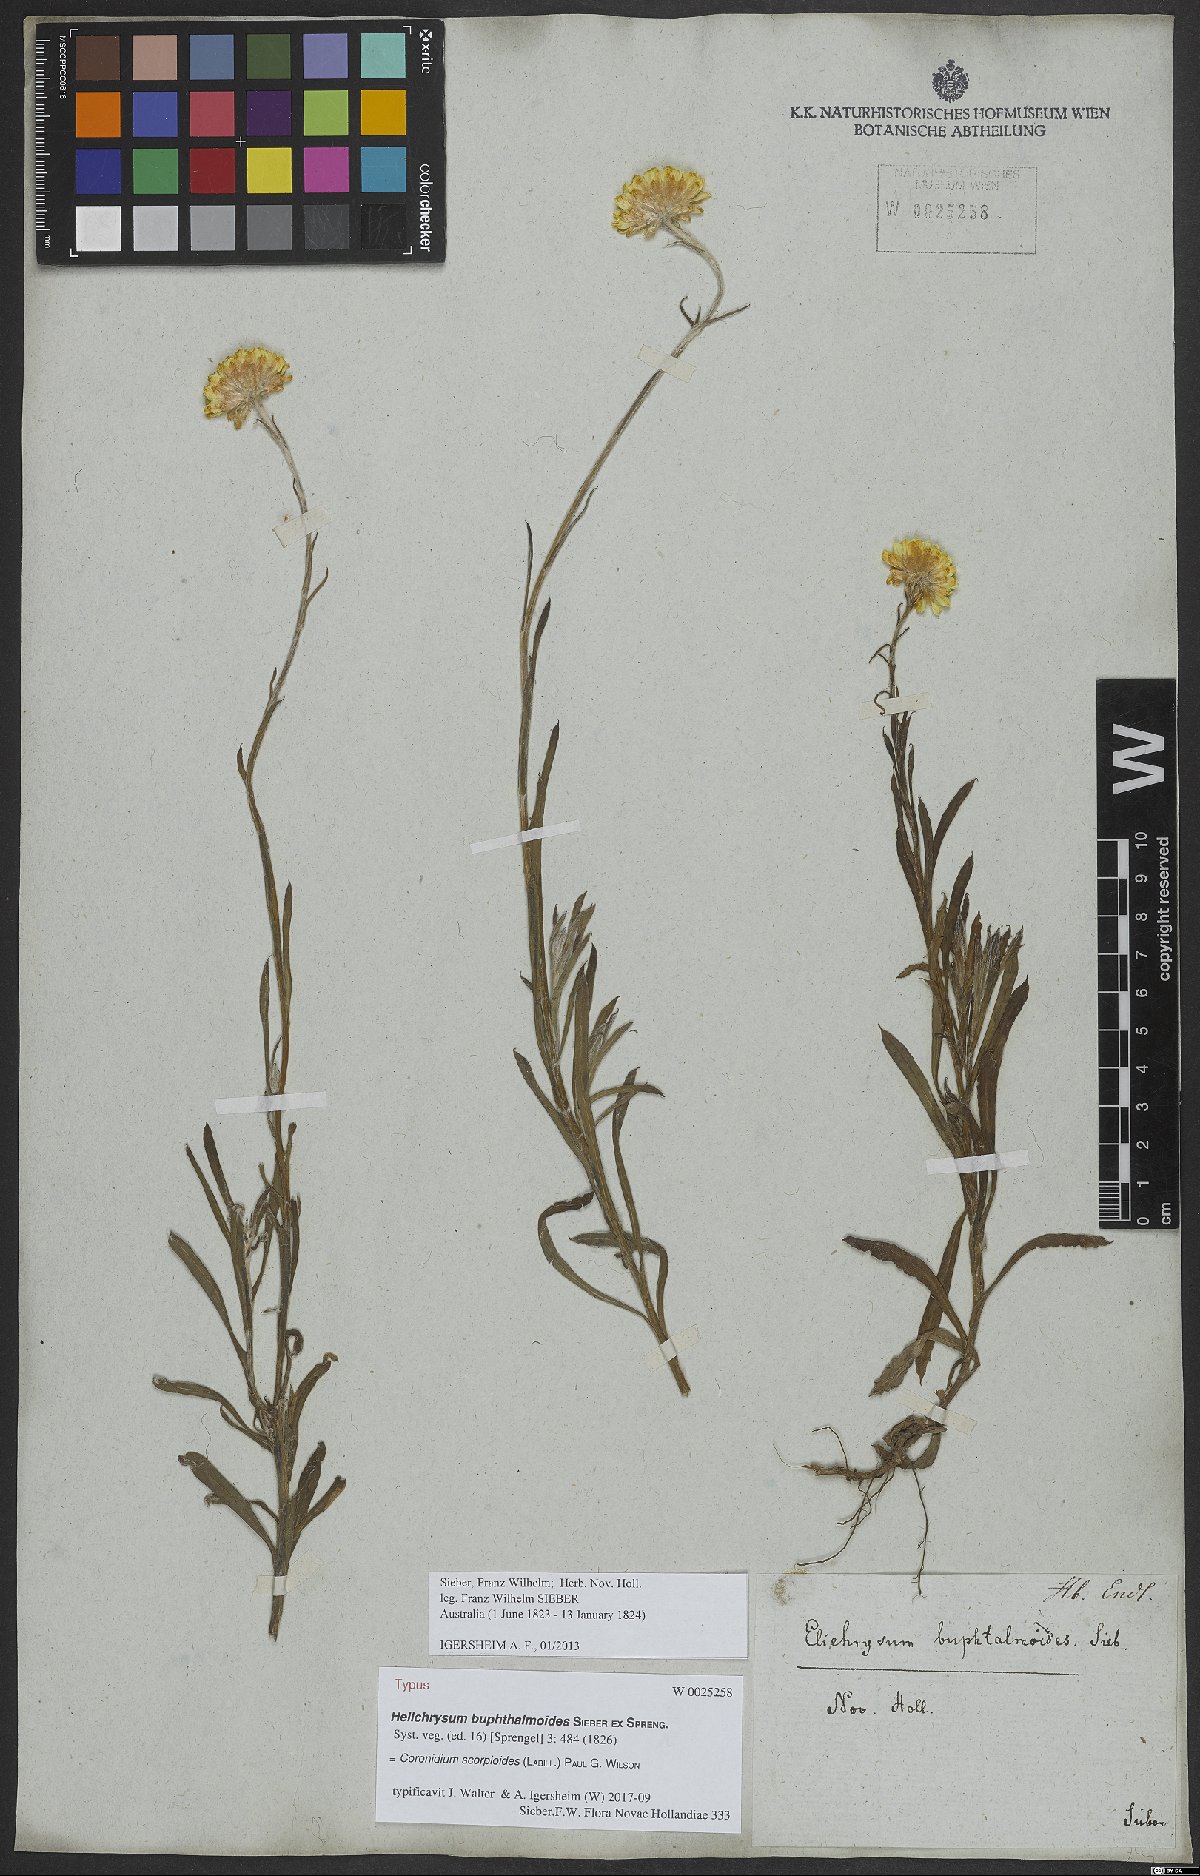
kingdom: Plantae
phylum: Tracheophyta
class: Magnoliopsida
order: Asterales
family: Asteraceae
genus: Coronidium
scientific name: Coronidium scorpioides
